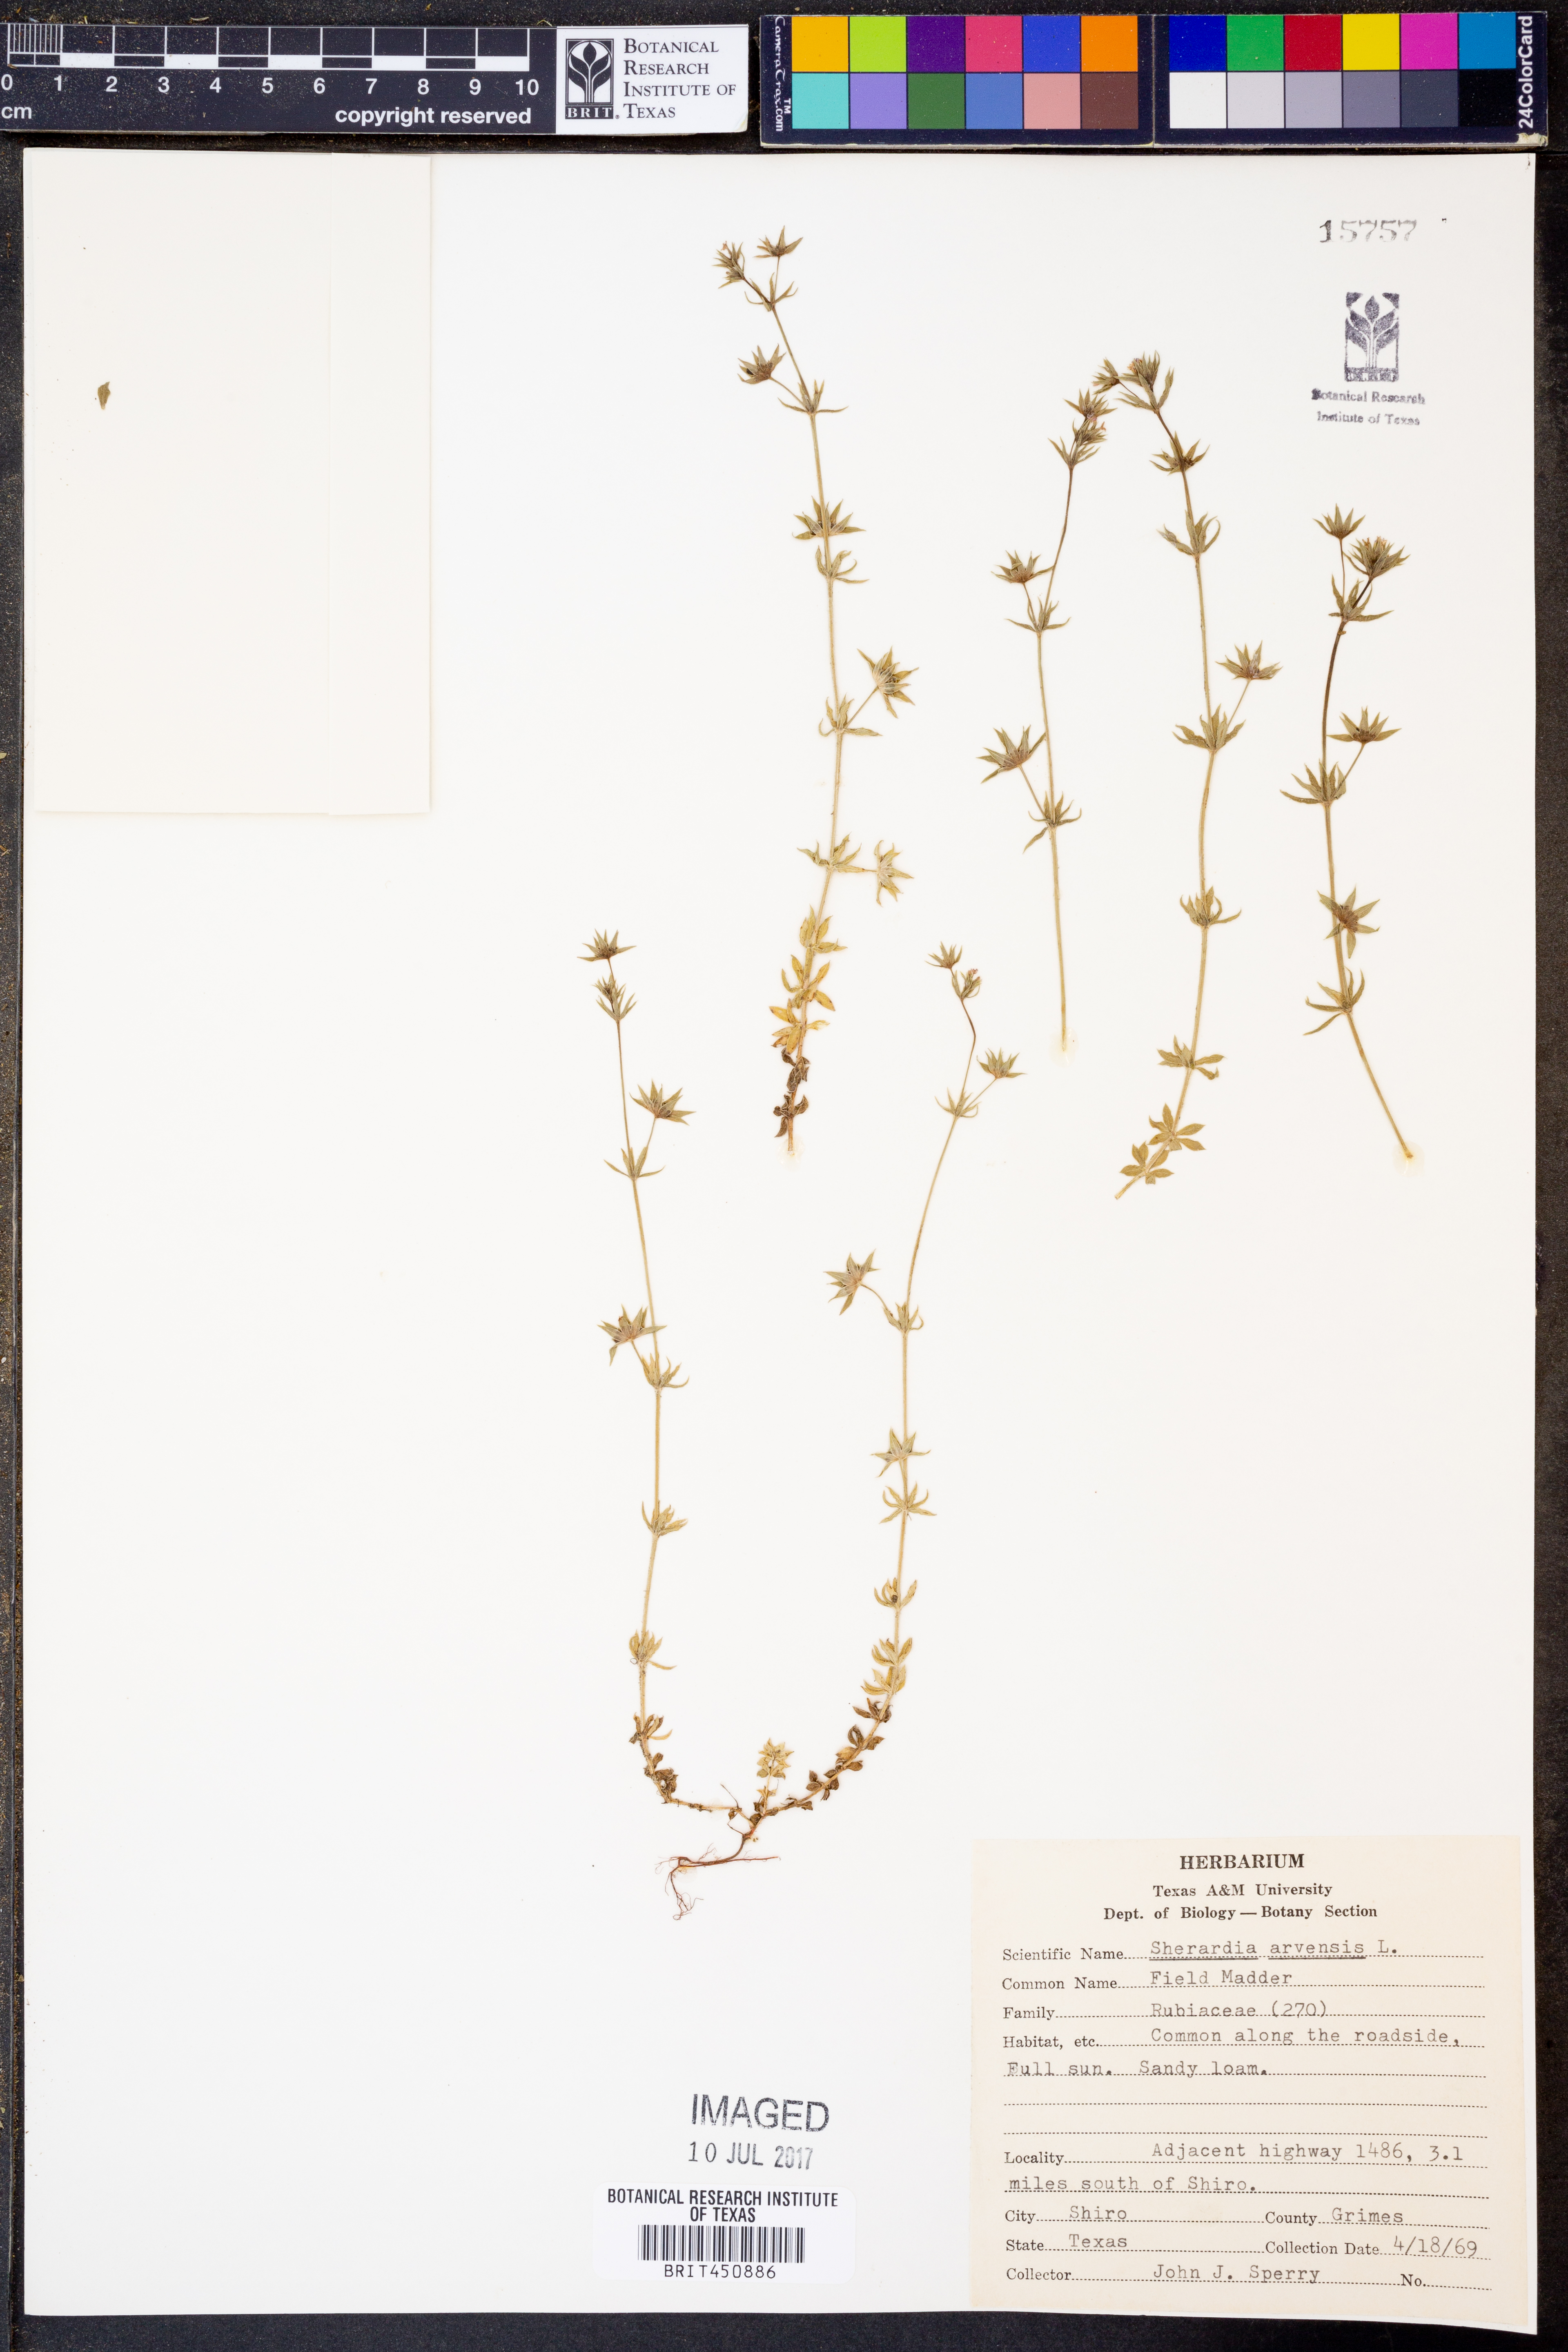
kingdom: Plantae
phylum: Tracheophyta
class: Magnoliopsida
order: Gentianales
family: Rubiaceae
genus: Sherardia
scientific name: Sherardia arvensis
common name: Field madder
